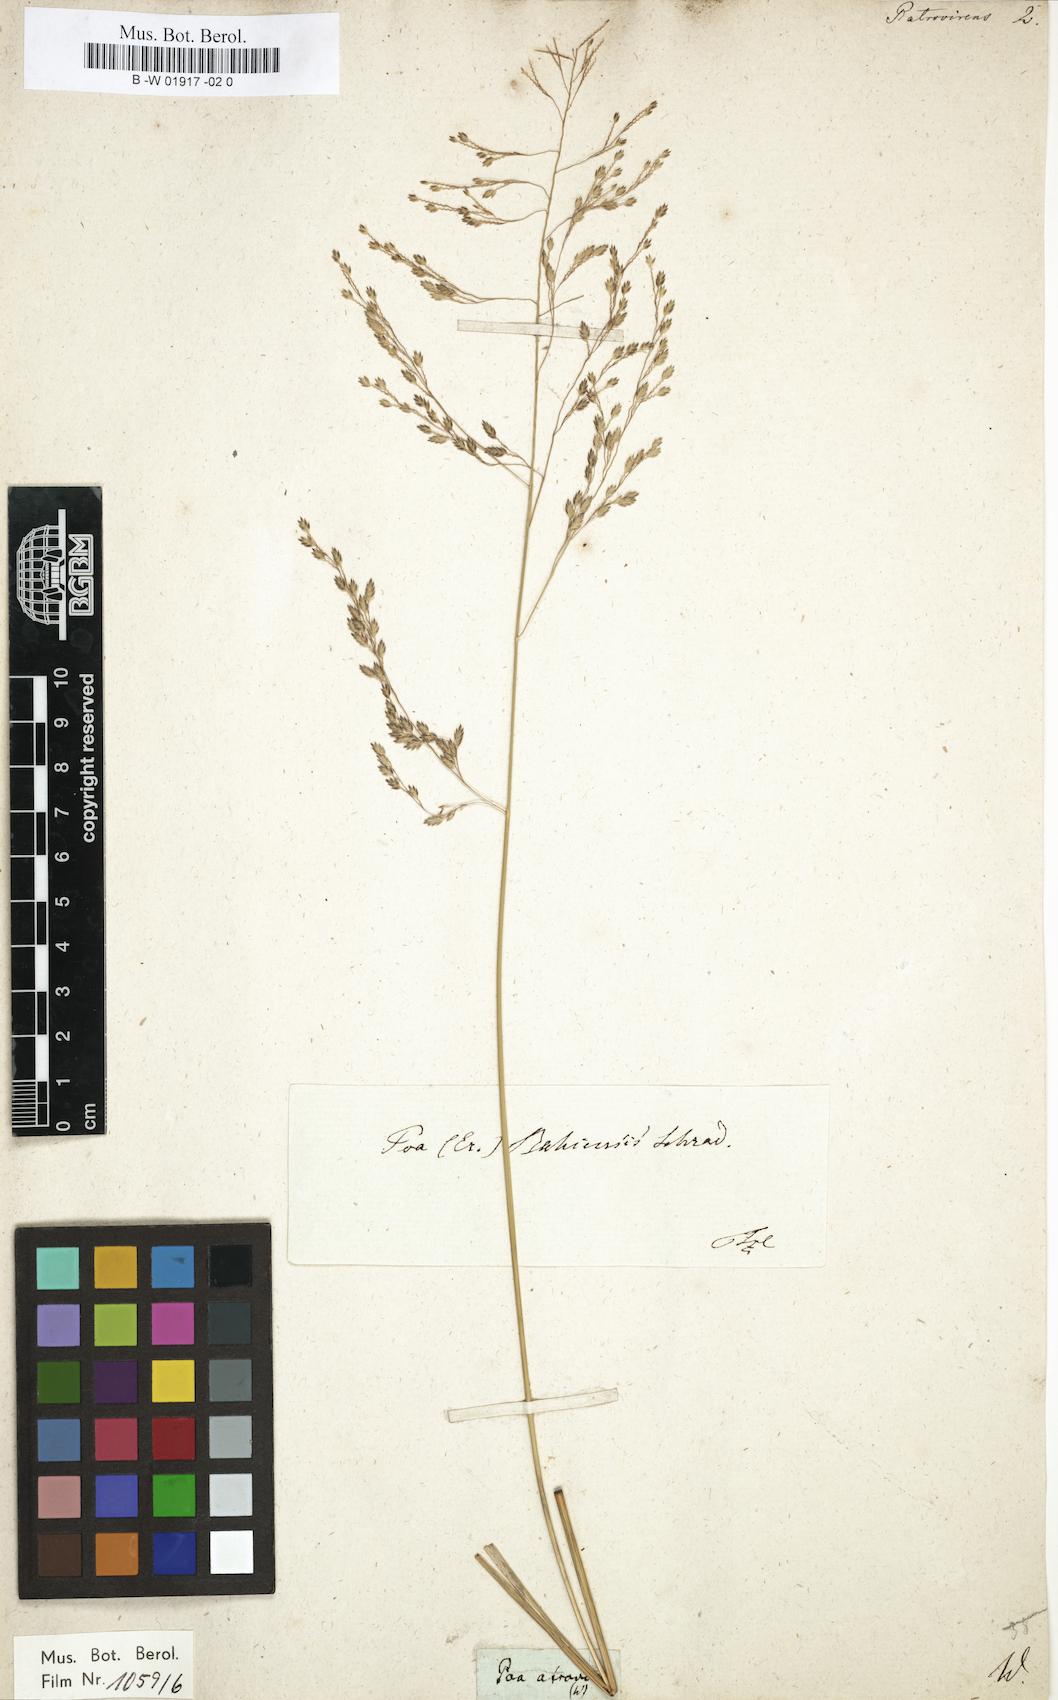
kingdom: Plantae
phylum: Tracheophyta
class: Liliopsida
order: Poales
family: Poaceae
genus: Eragrostis
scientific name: Eragrostis
